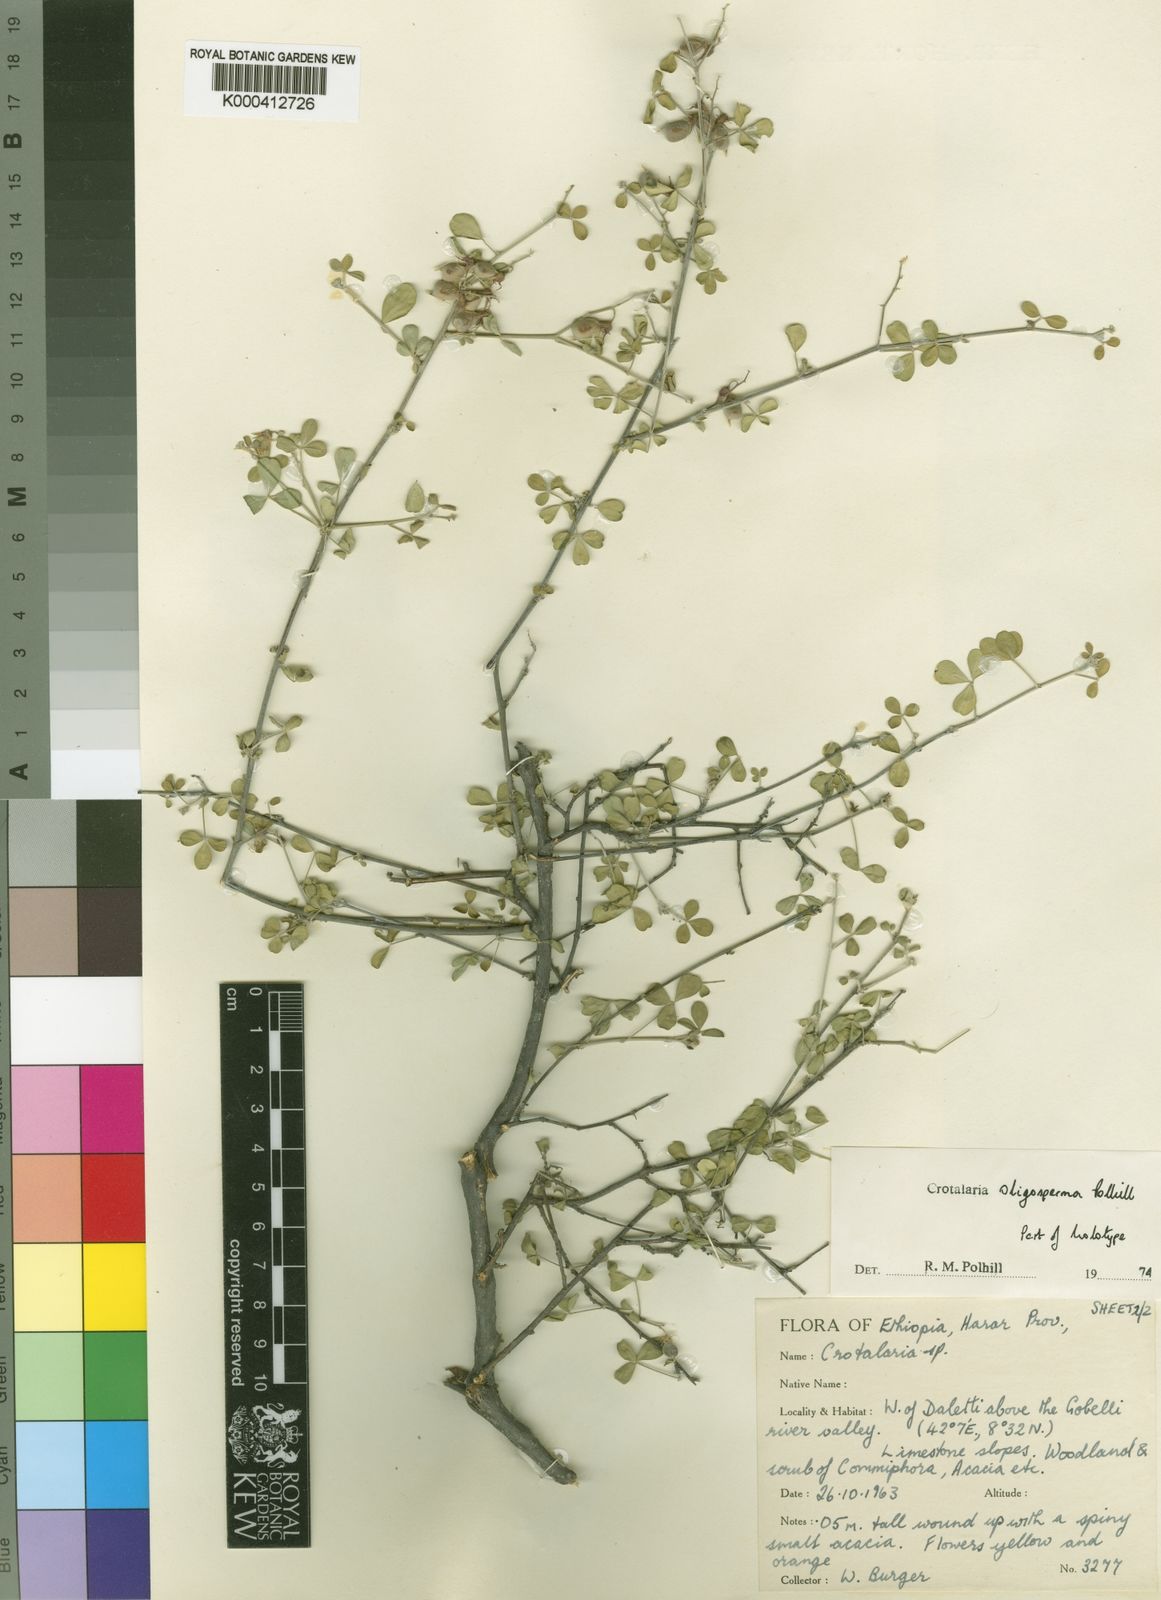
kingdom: Plantae
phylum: Tracheophyta
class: Magnoliopsida
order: Fabales
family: Fabaceae
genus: Crotalaria
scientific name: Crotalaria oligosperma
